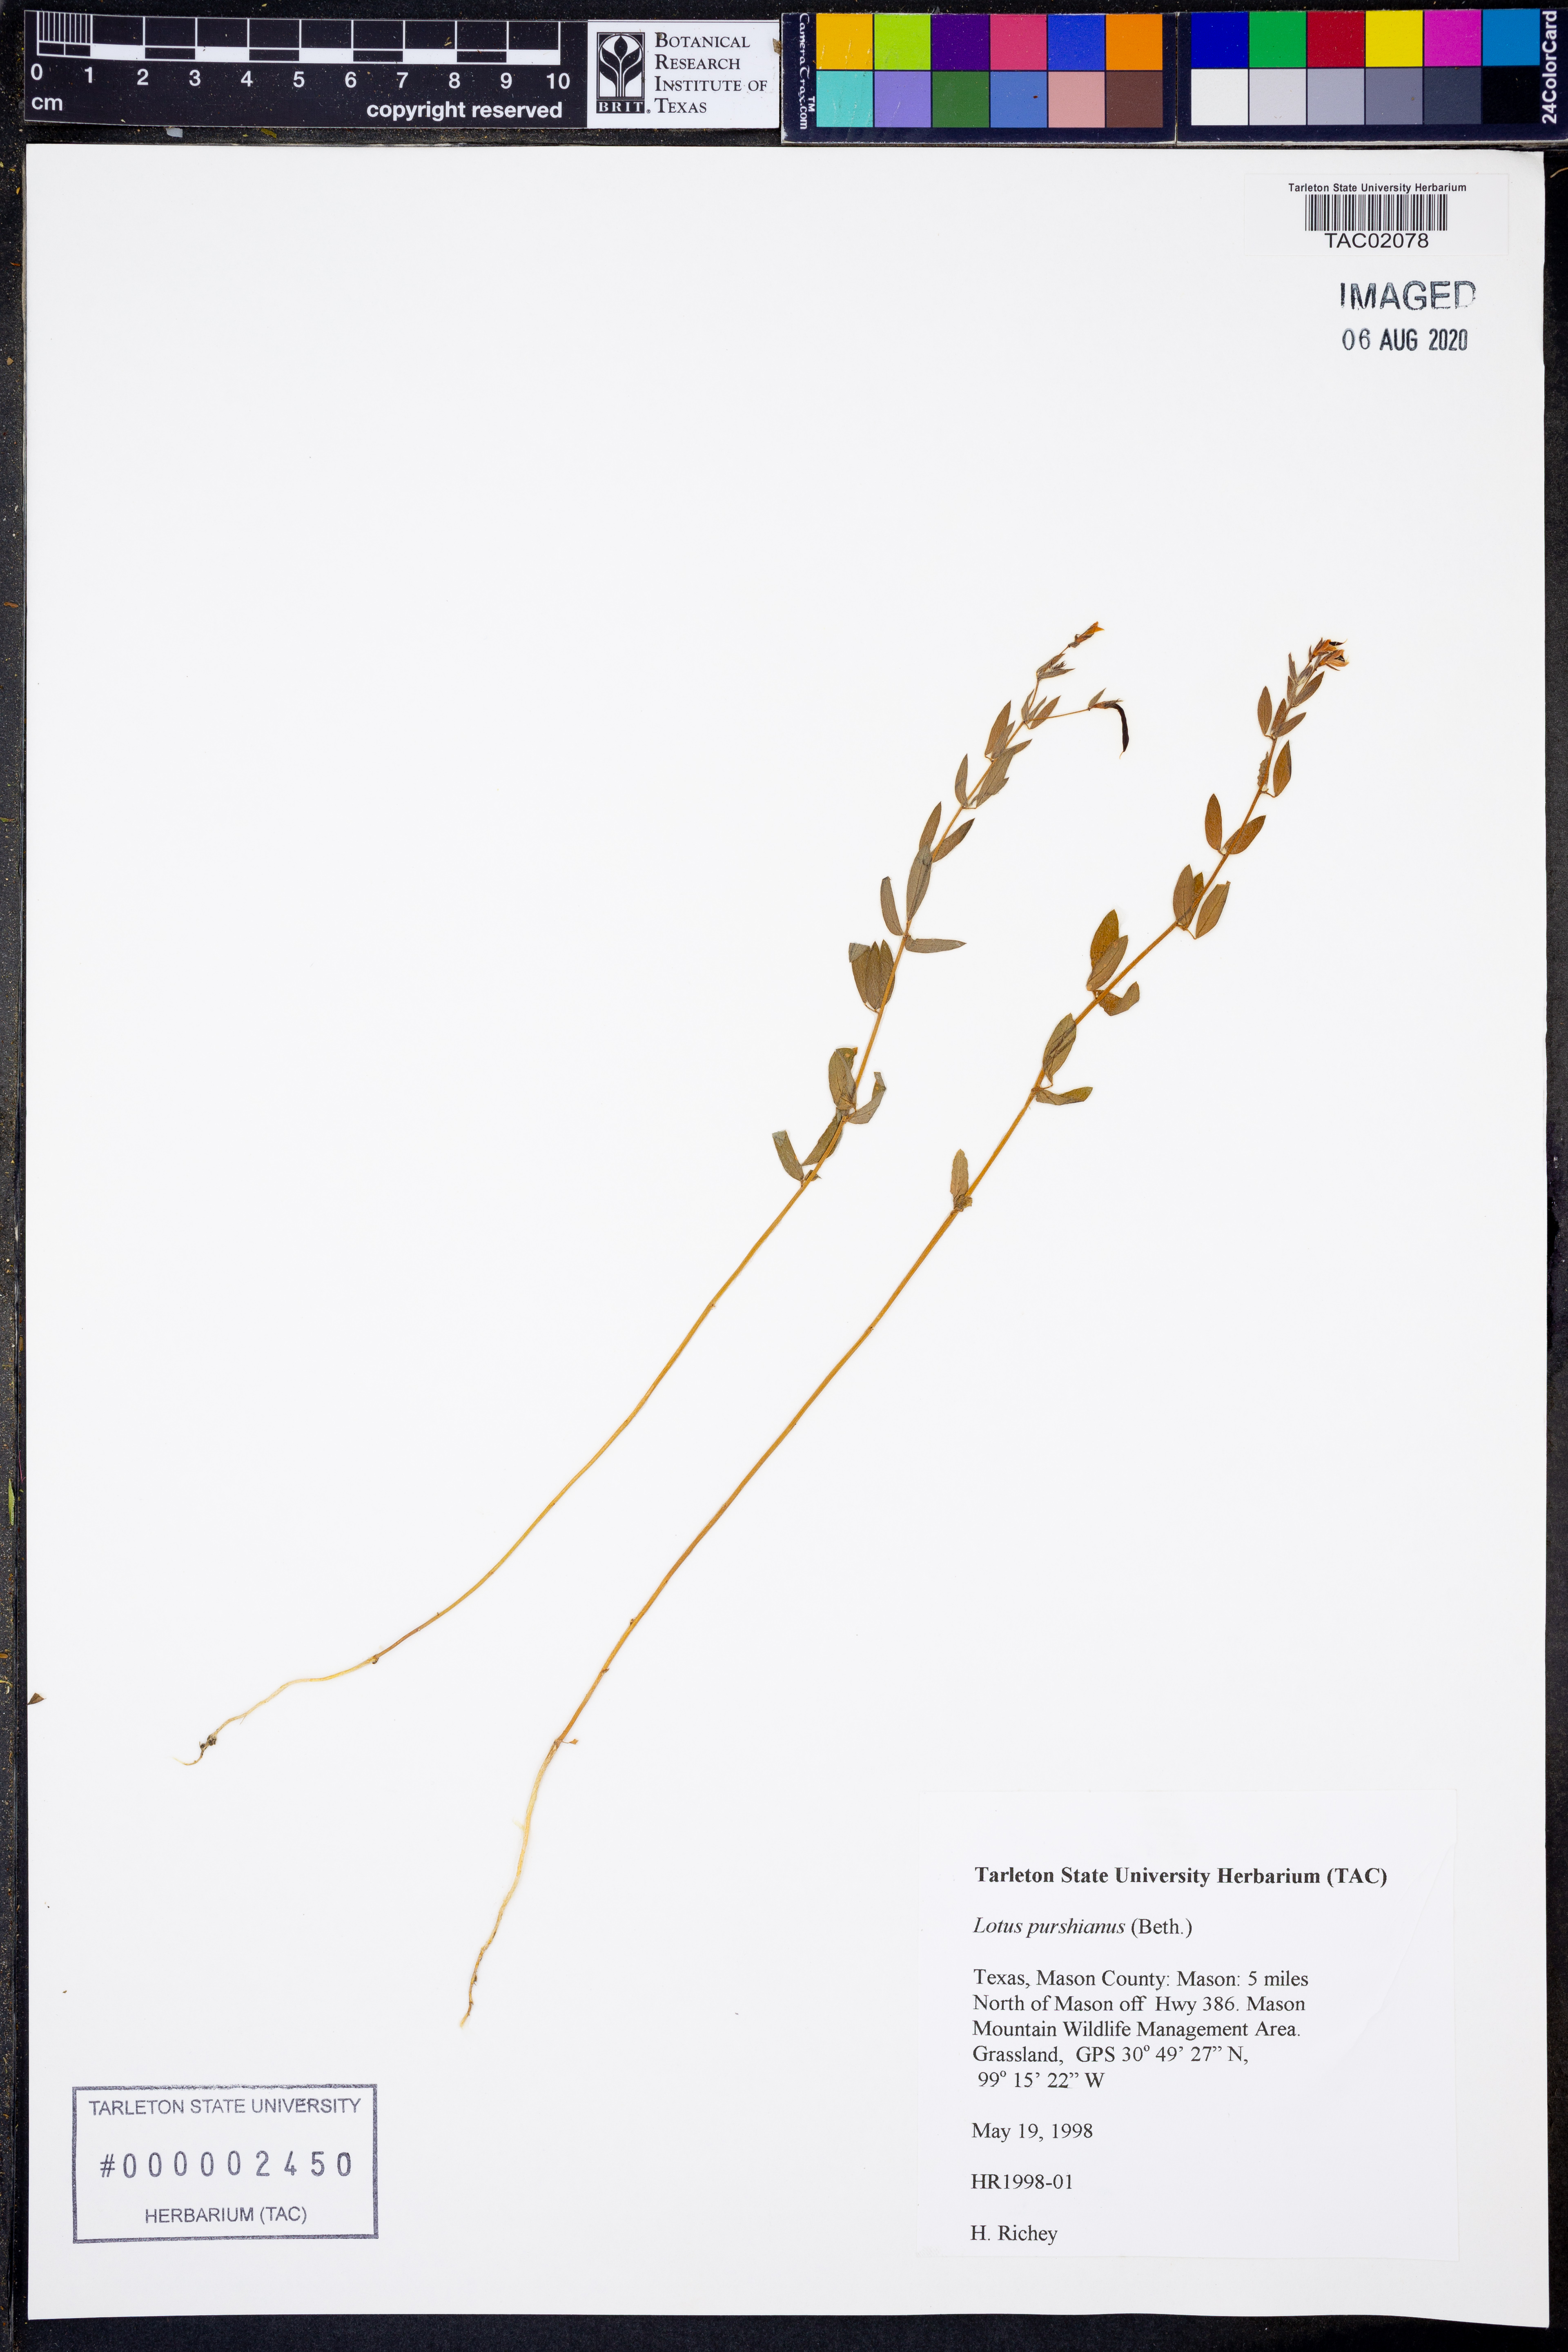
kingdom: Plantae
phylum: Tracheophyta
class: Magnoliopsida
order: Fabales
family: Fabaceae
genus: Acmispon
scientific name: Acmispon americanus
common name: American bird's-foot trefoil
